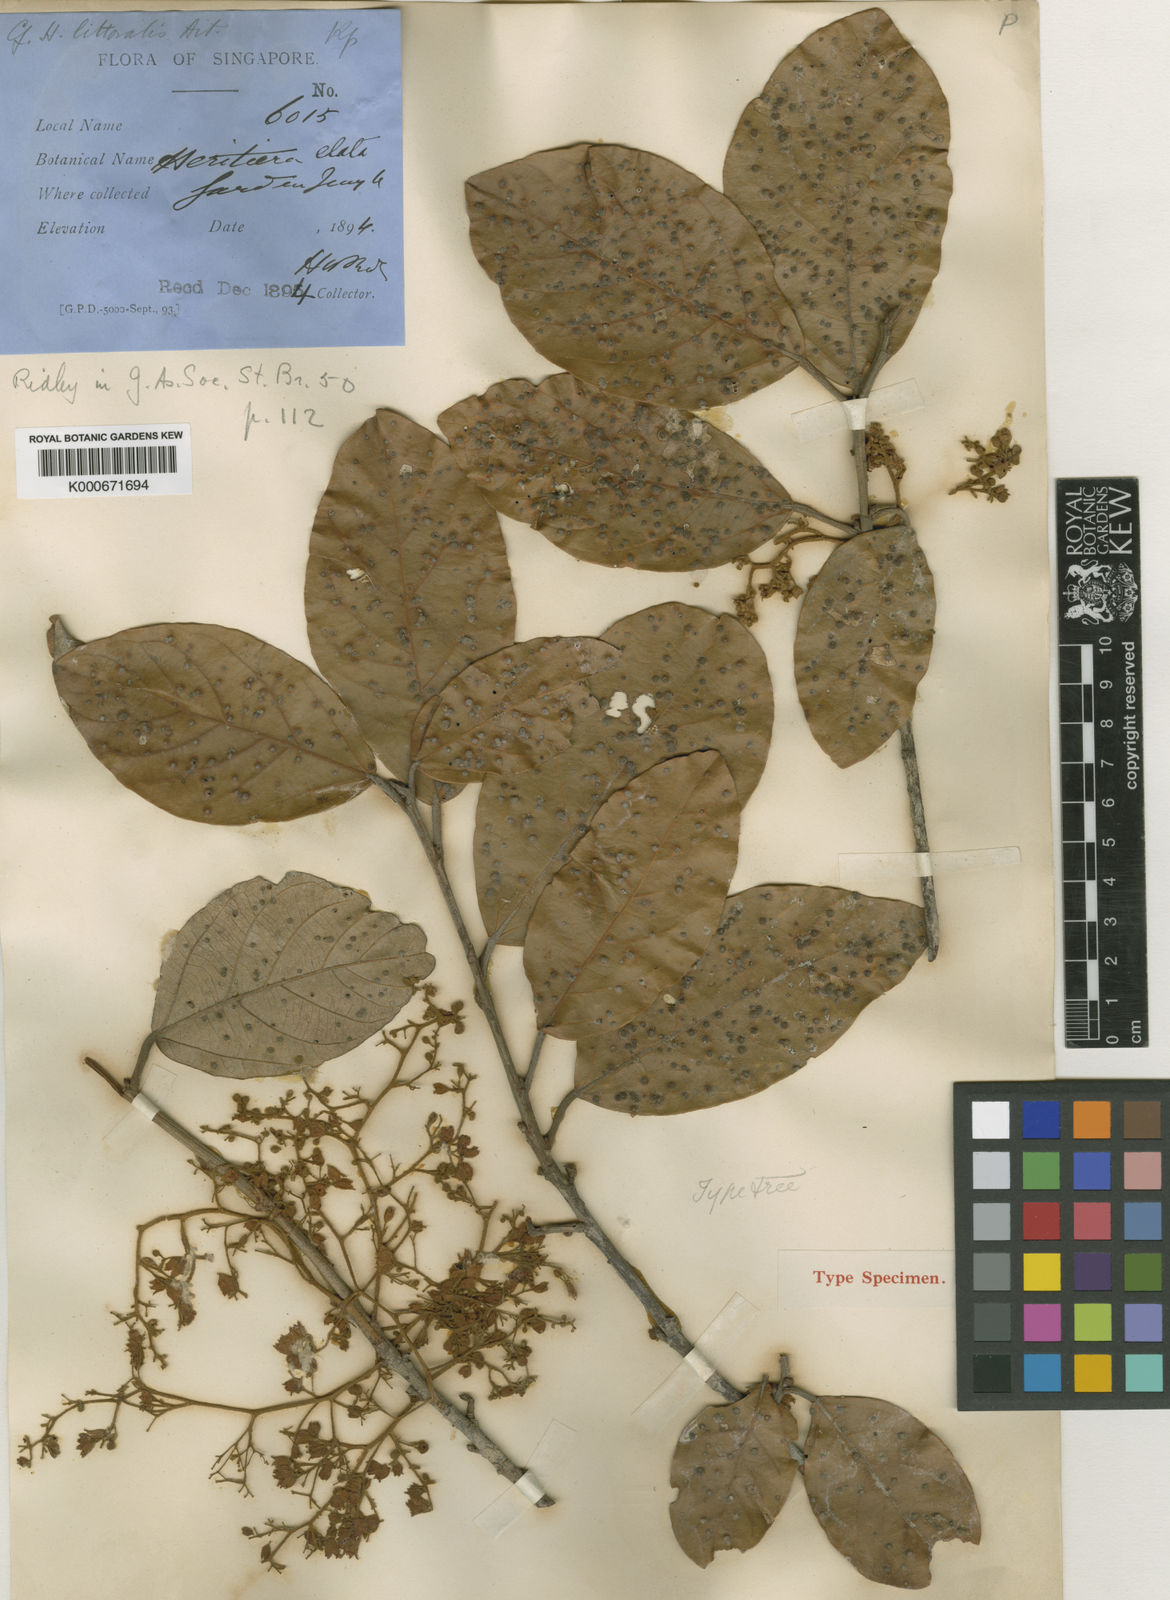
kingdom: Plantae
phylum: Tracheophyta
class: Magnoliopsida
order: Malvales
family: Malvaceae
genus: Heritiera
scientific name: Heritiera elata
